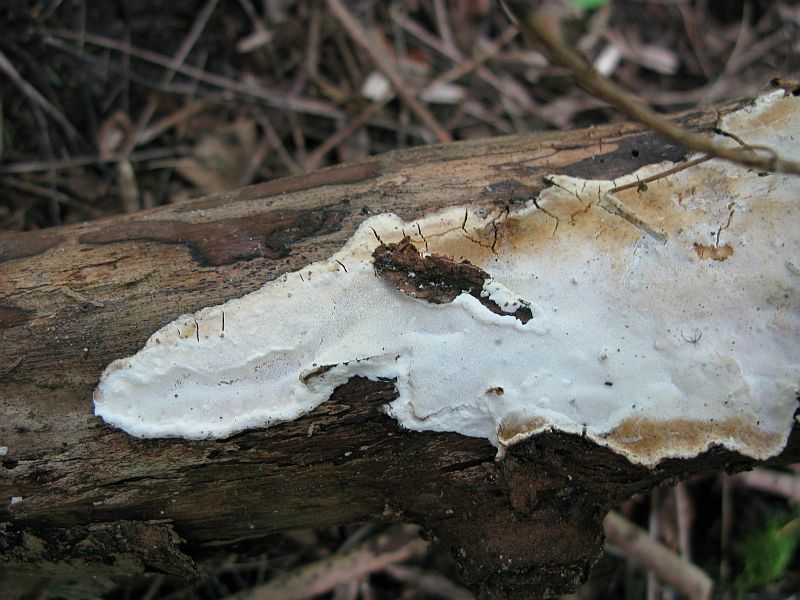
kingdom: Fungi
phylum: Basidiomycota
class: Agaricomycetes
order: Polyporales
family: Incrustoporiaceae
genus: Skeletocutis
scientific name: Skeletocutis nemoralis
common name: stor krystalporesvamp
